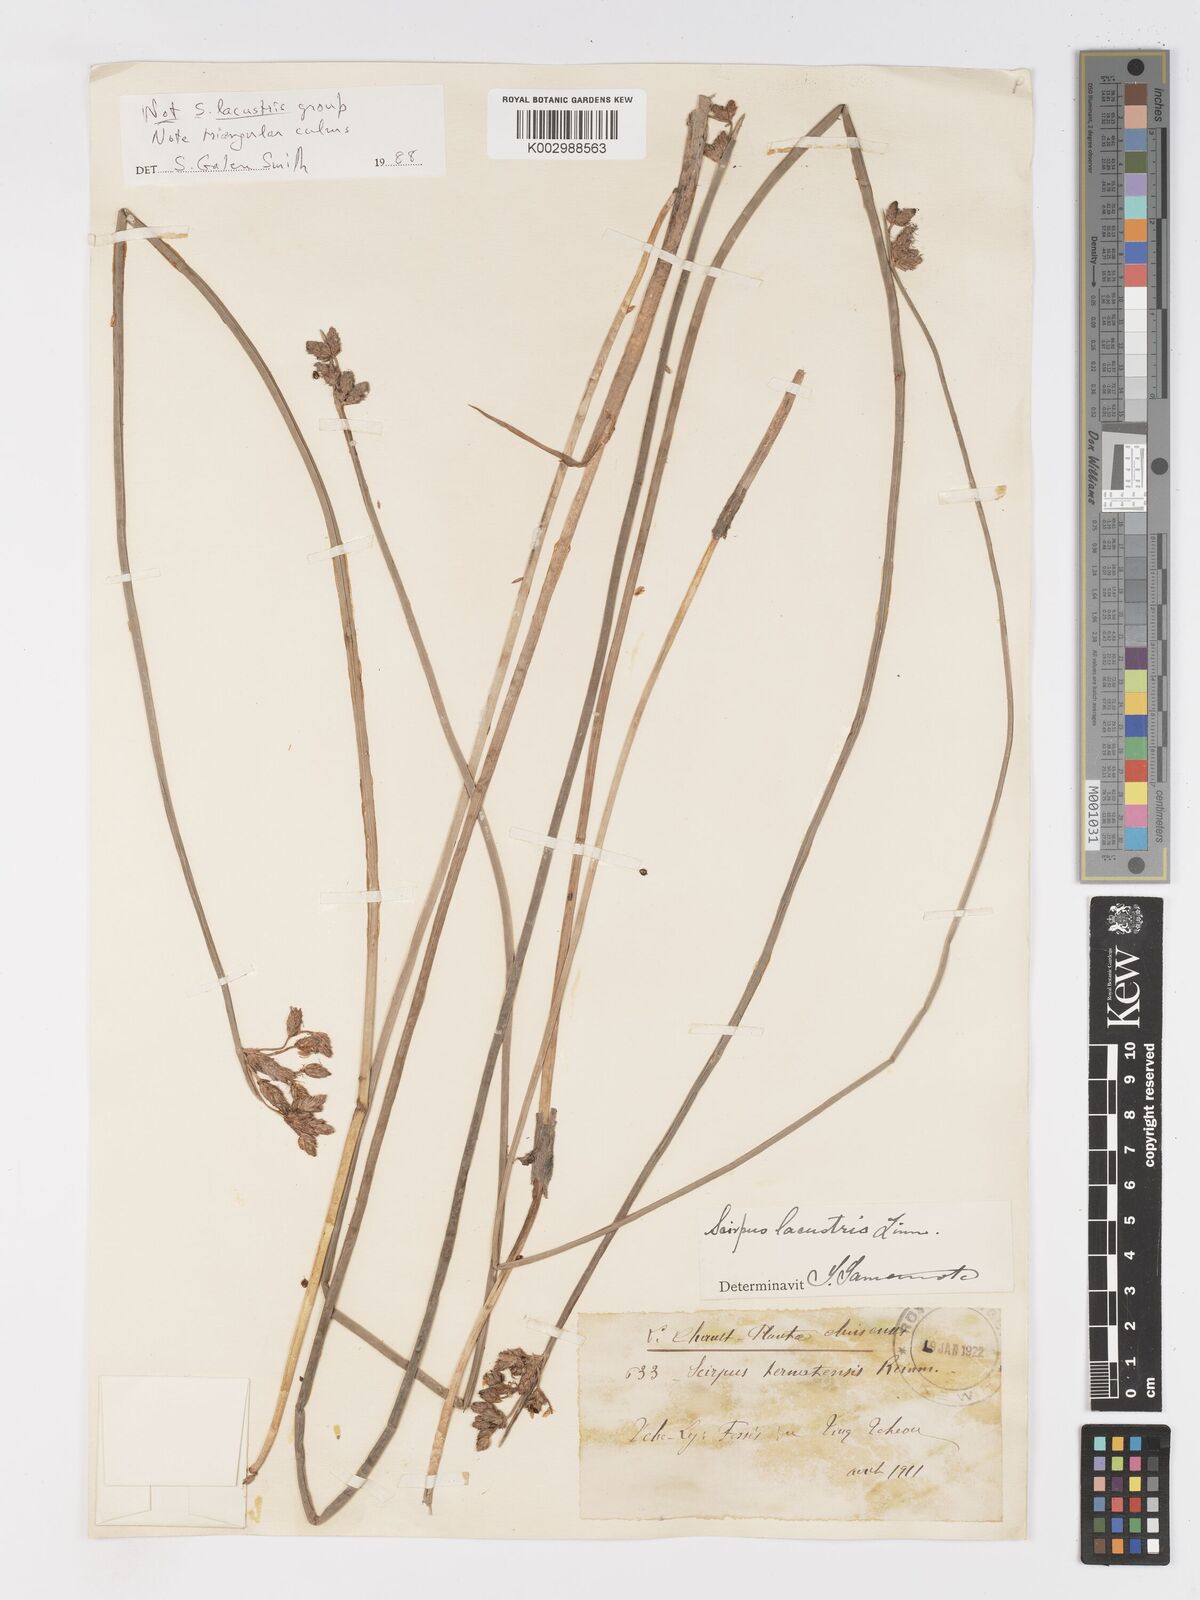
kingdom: Plantae
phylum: Tracheophyta
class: Liliopsida
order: Poales
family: Cyperaceae
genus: Schoenoplectus
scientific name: Schoenoplectus
